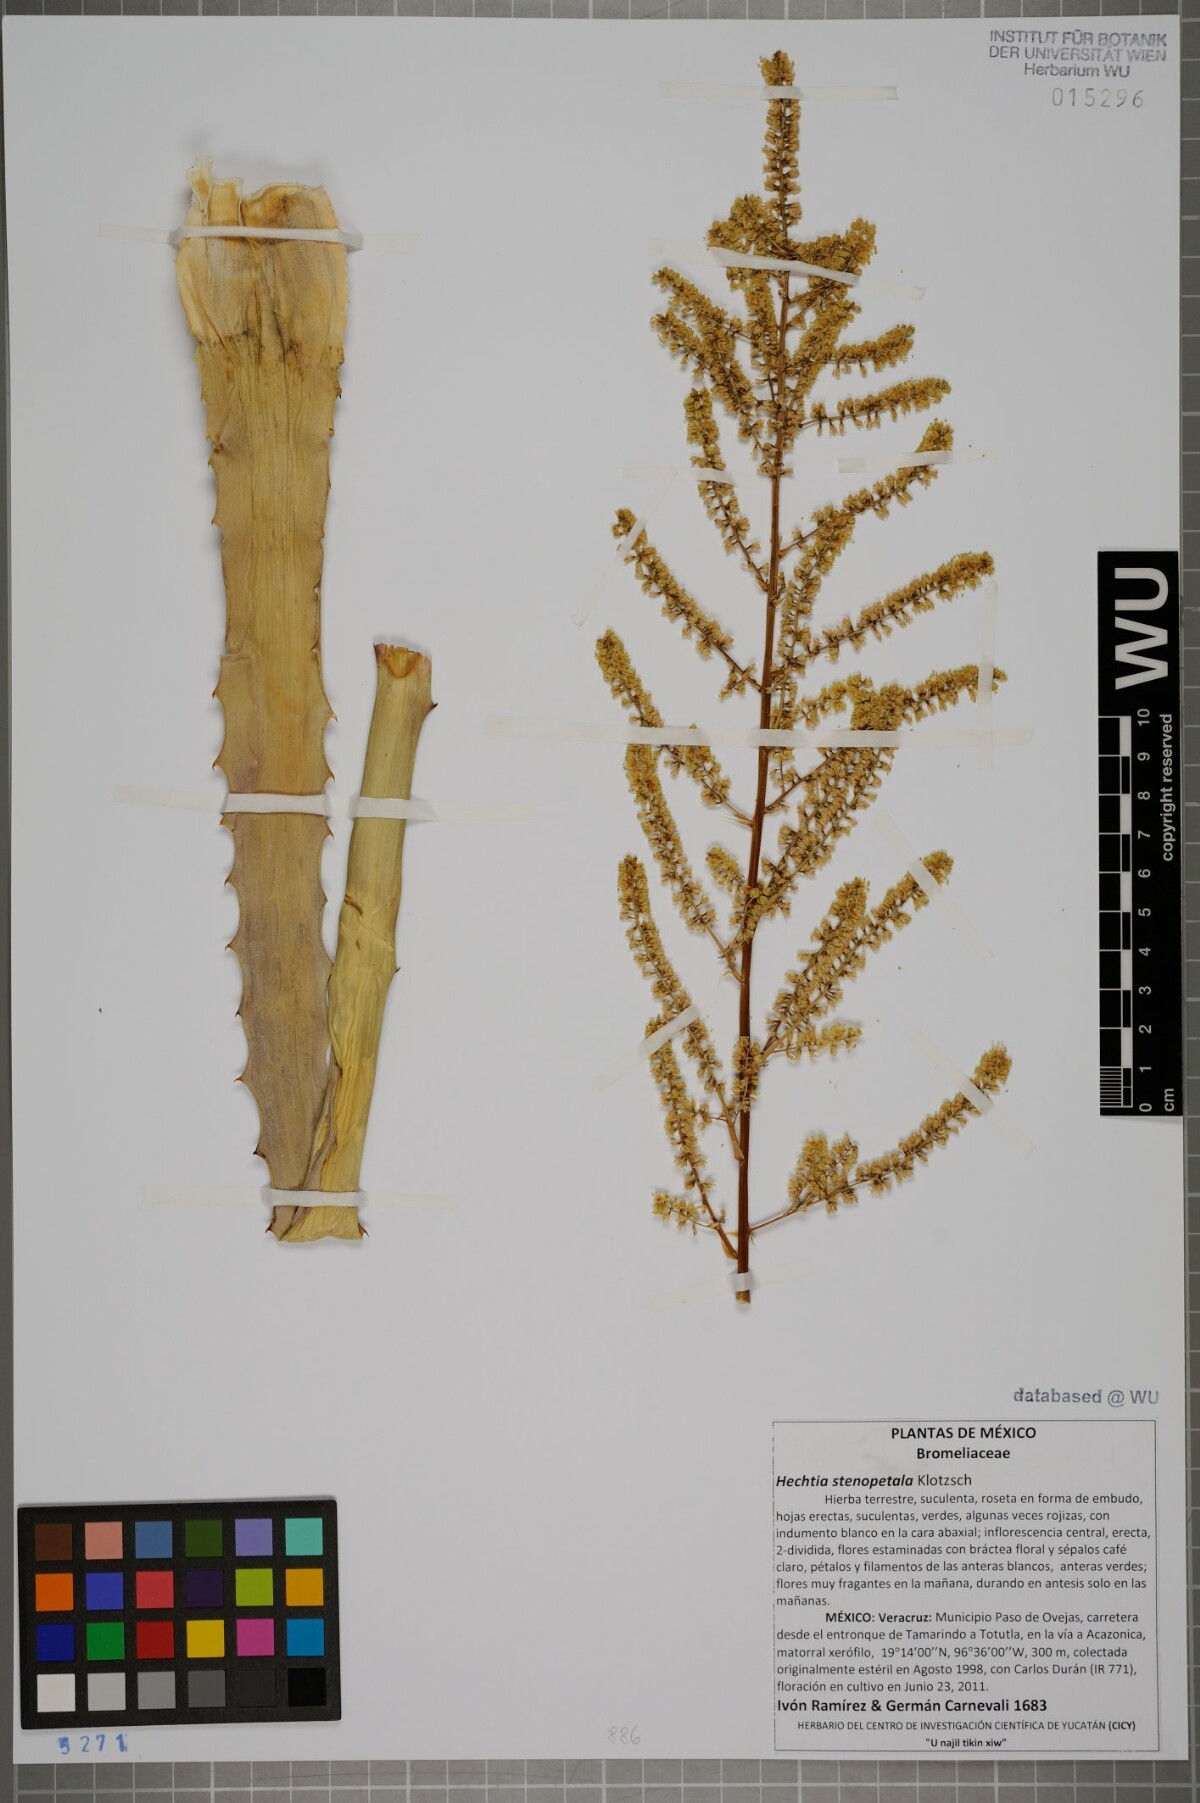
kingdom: Plantae
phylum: Tracheophyta
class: Liliopsida
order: Poales
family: Bromeliaceae
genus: Hechtia
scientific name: Hechtia stenopetala
